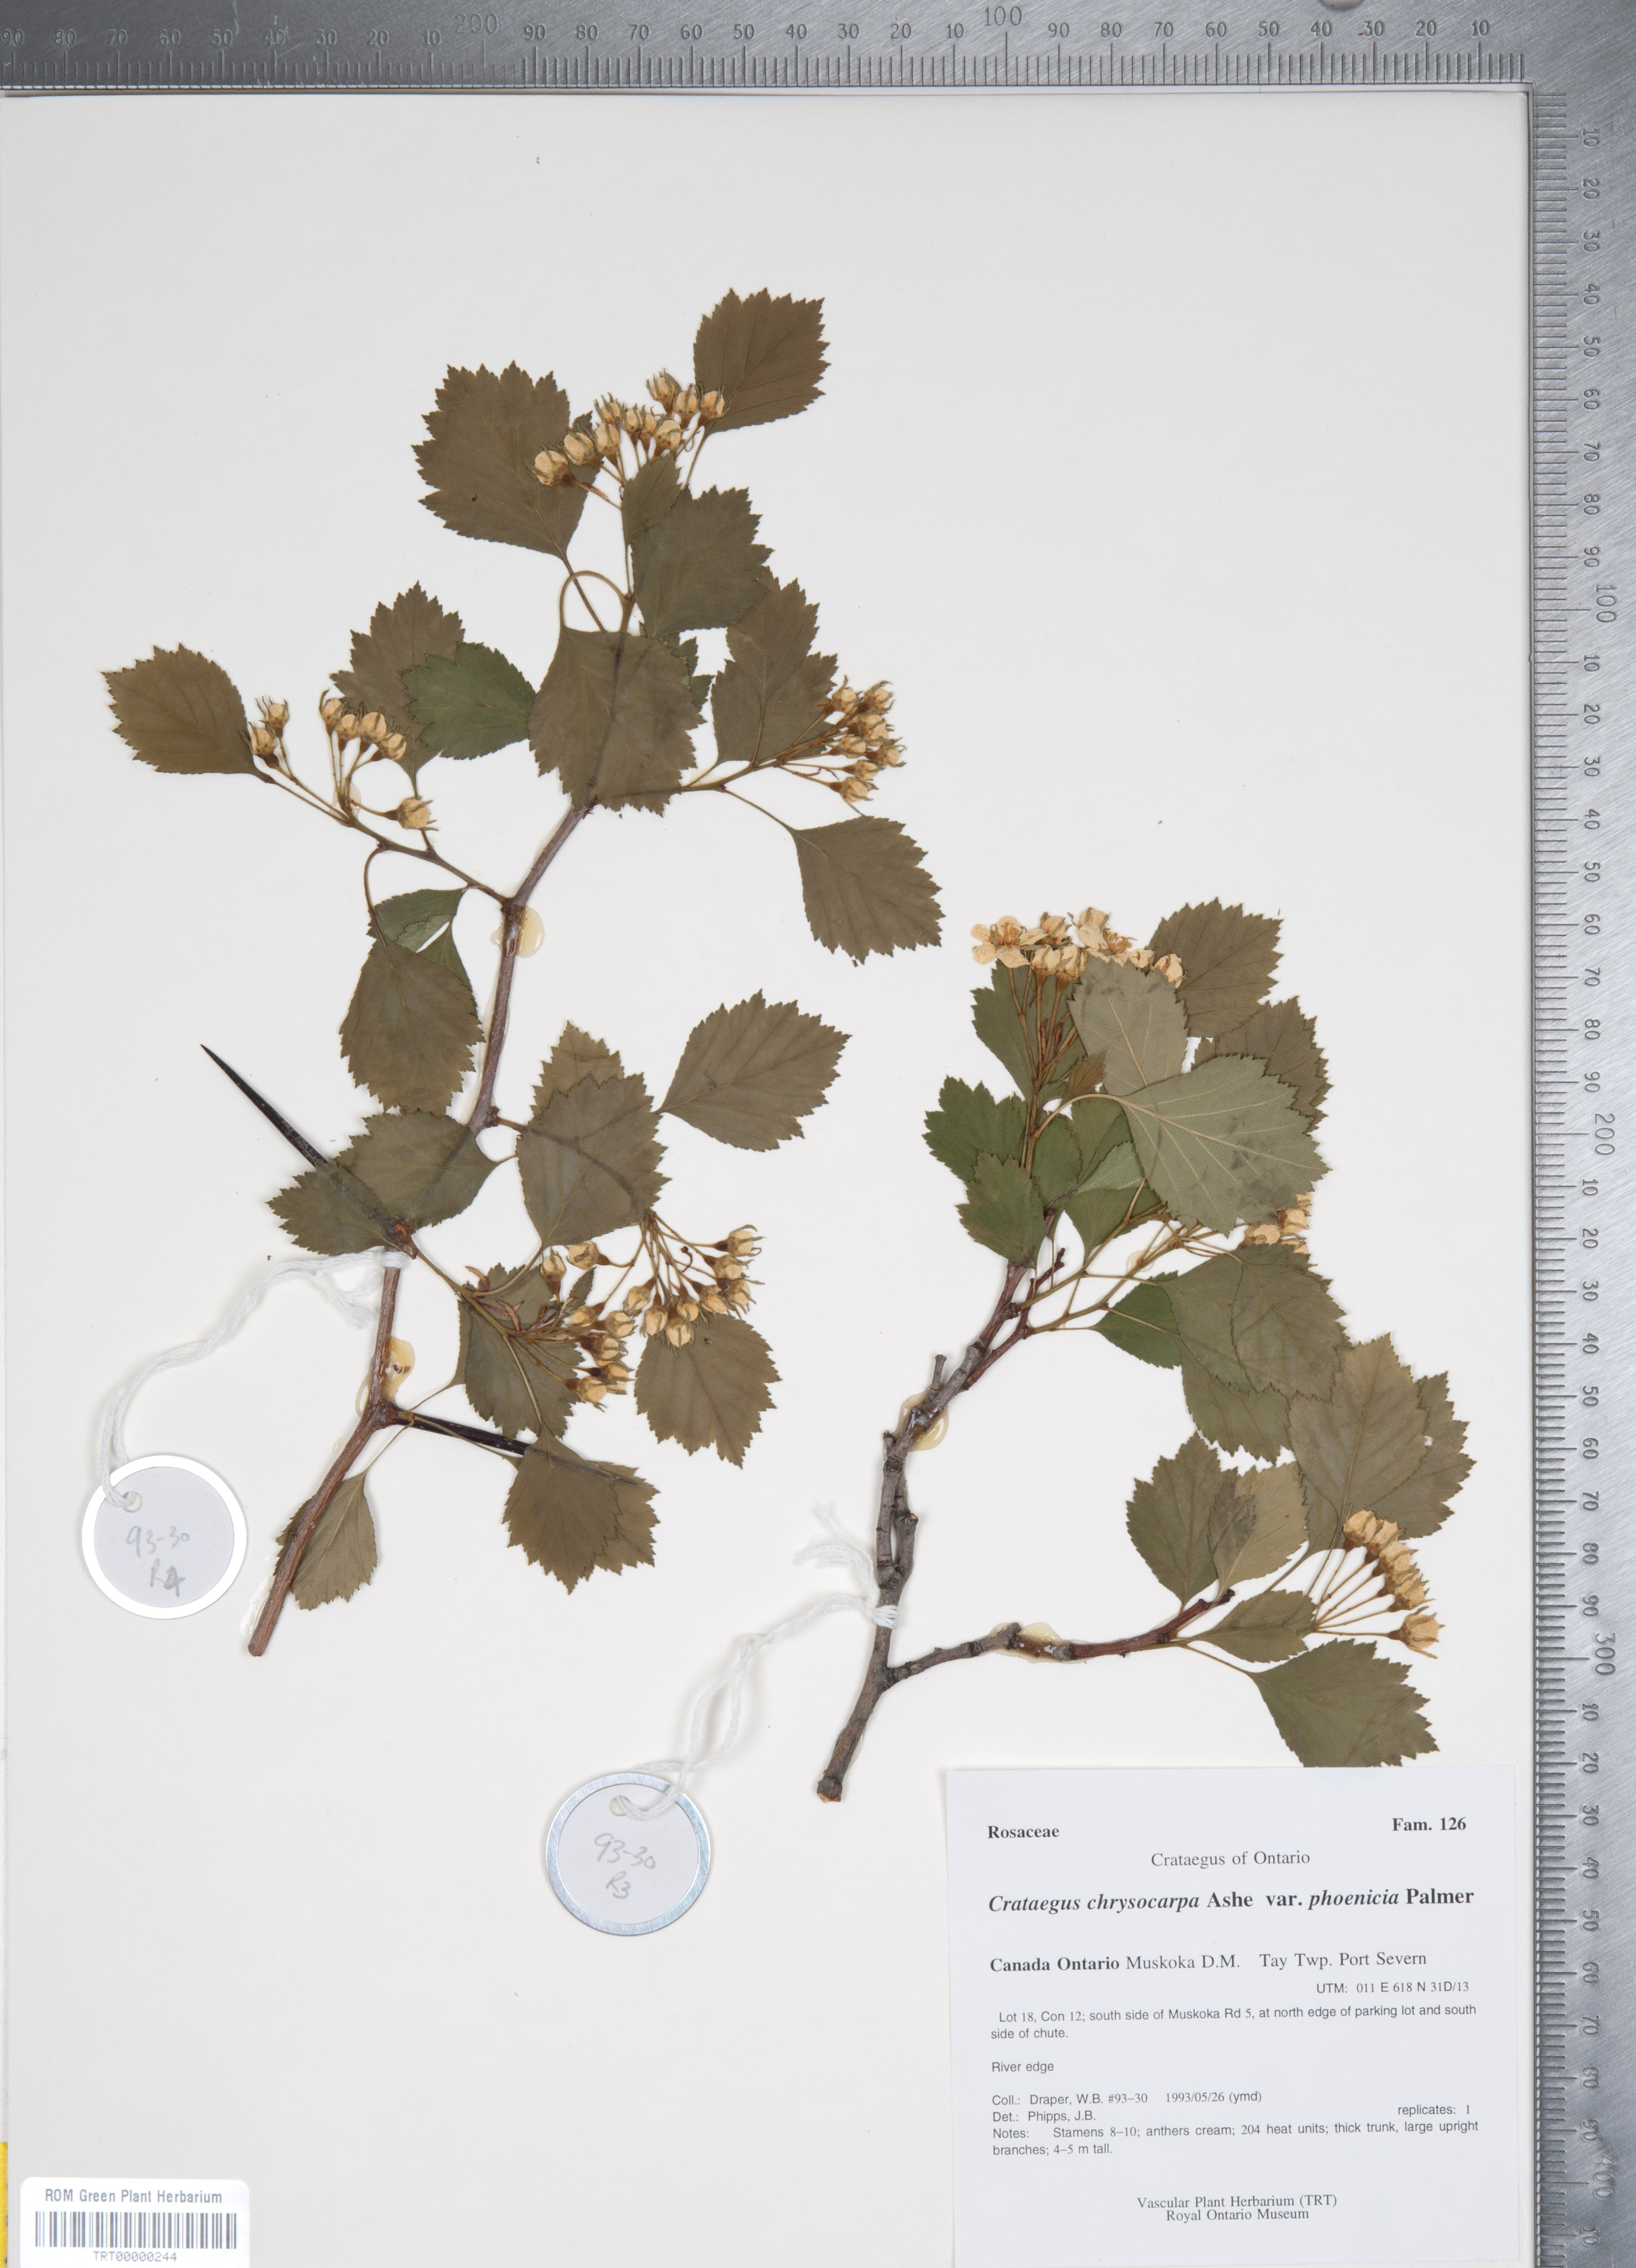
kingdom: Plantae
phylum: Tracheophyta
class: Magnoliopsida
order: Rosales
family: Rosaceae
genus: Crataegus
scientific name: Crataegus chrysocarpa
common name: Fire-berry hawthorn
